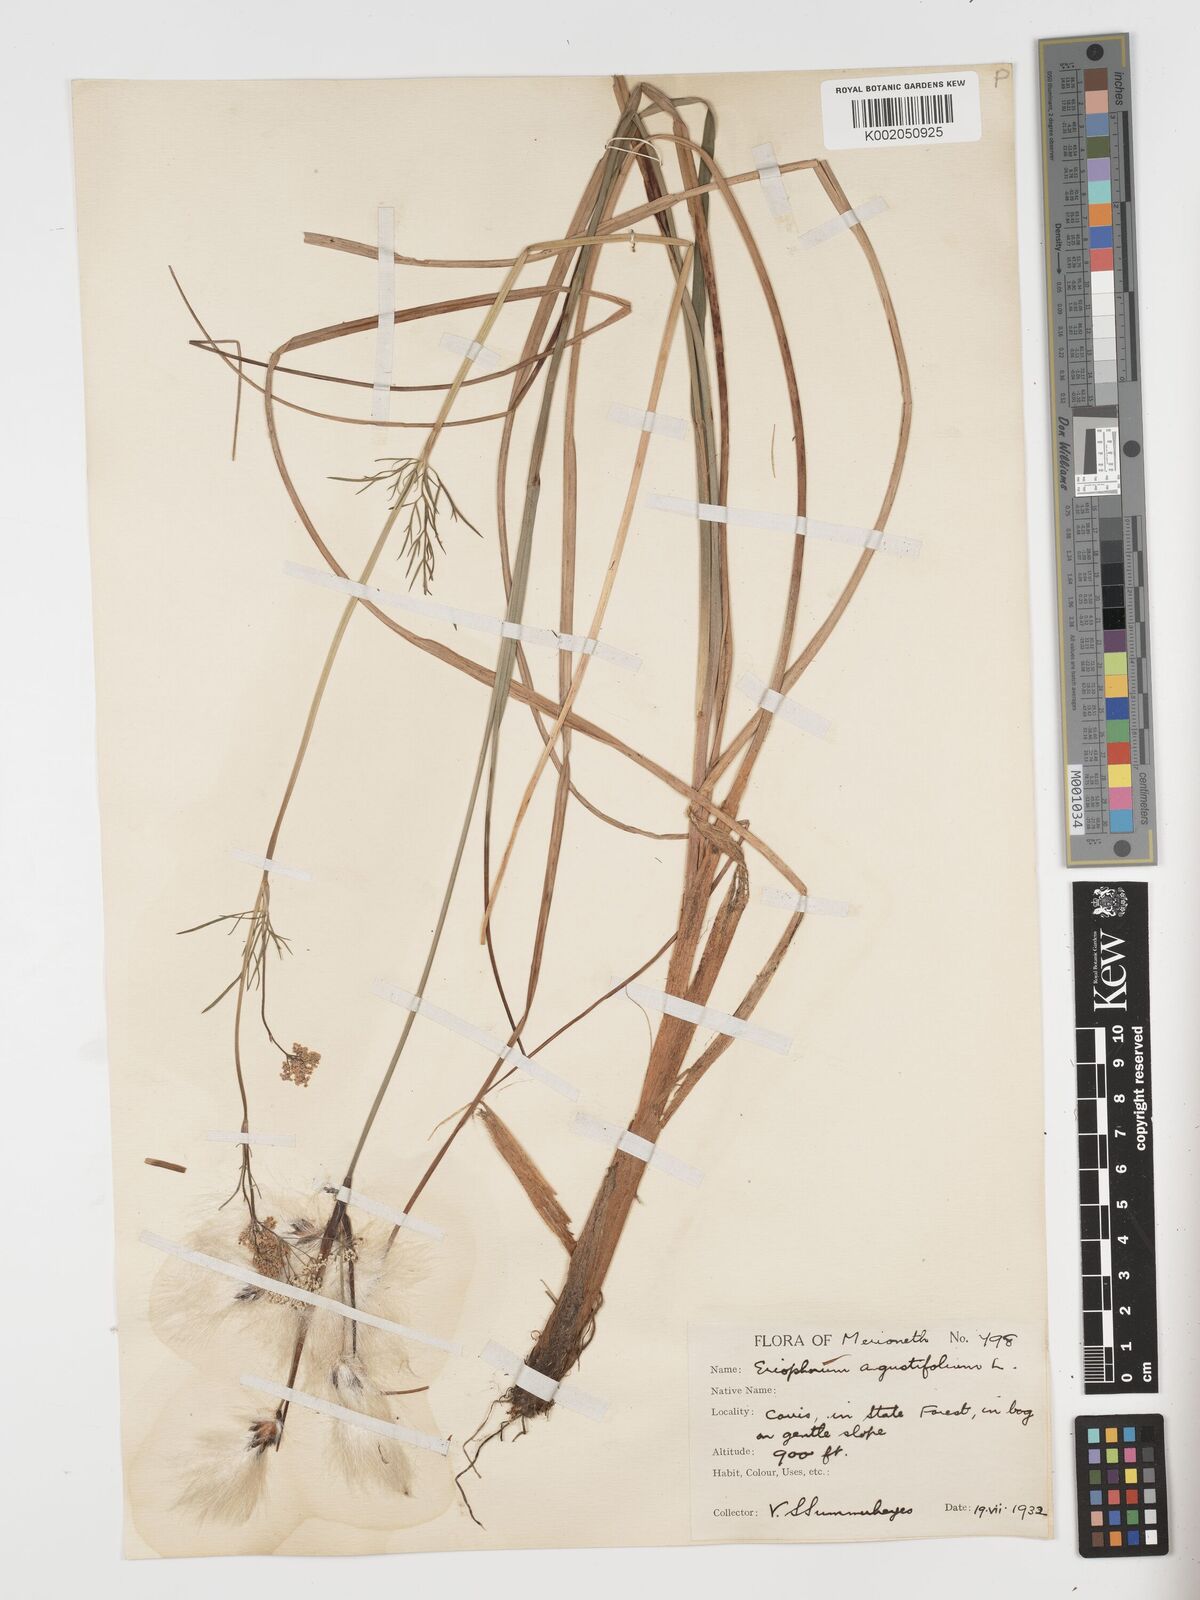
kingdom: Plantae
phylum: Tracheophyta
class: Liliopsida
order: Poales
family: Cyperaceae
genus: Eriophorum
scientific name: Eriophorum angustifolium
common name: Common cottongrass
